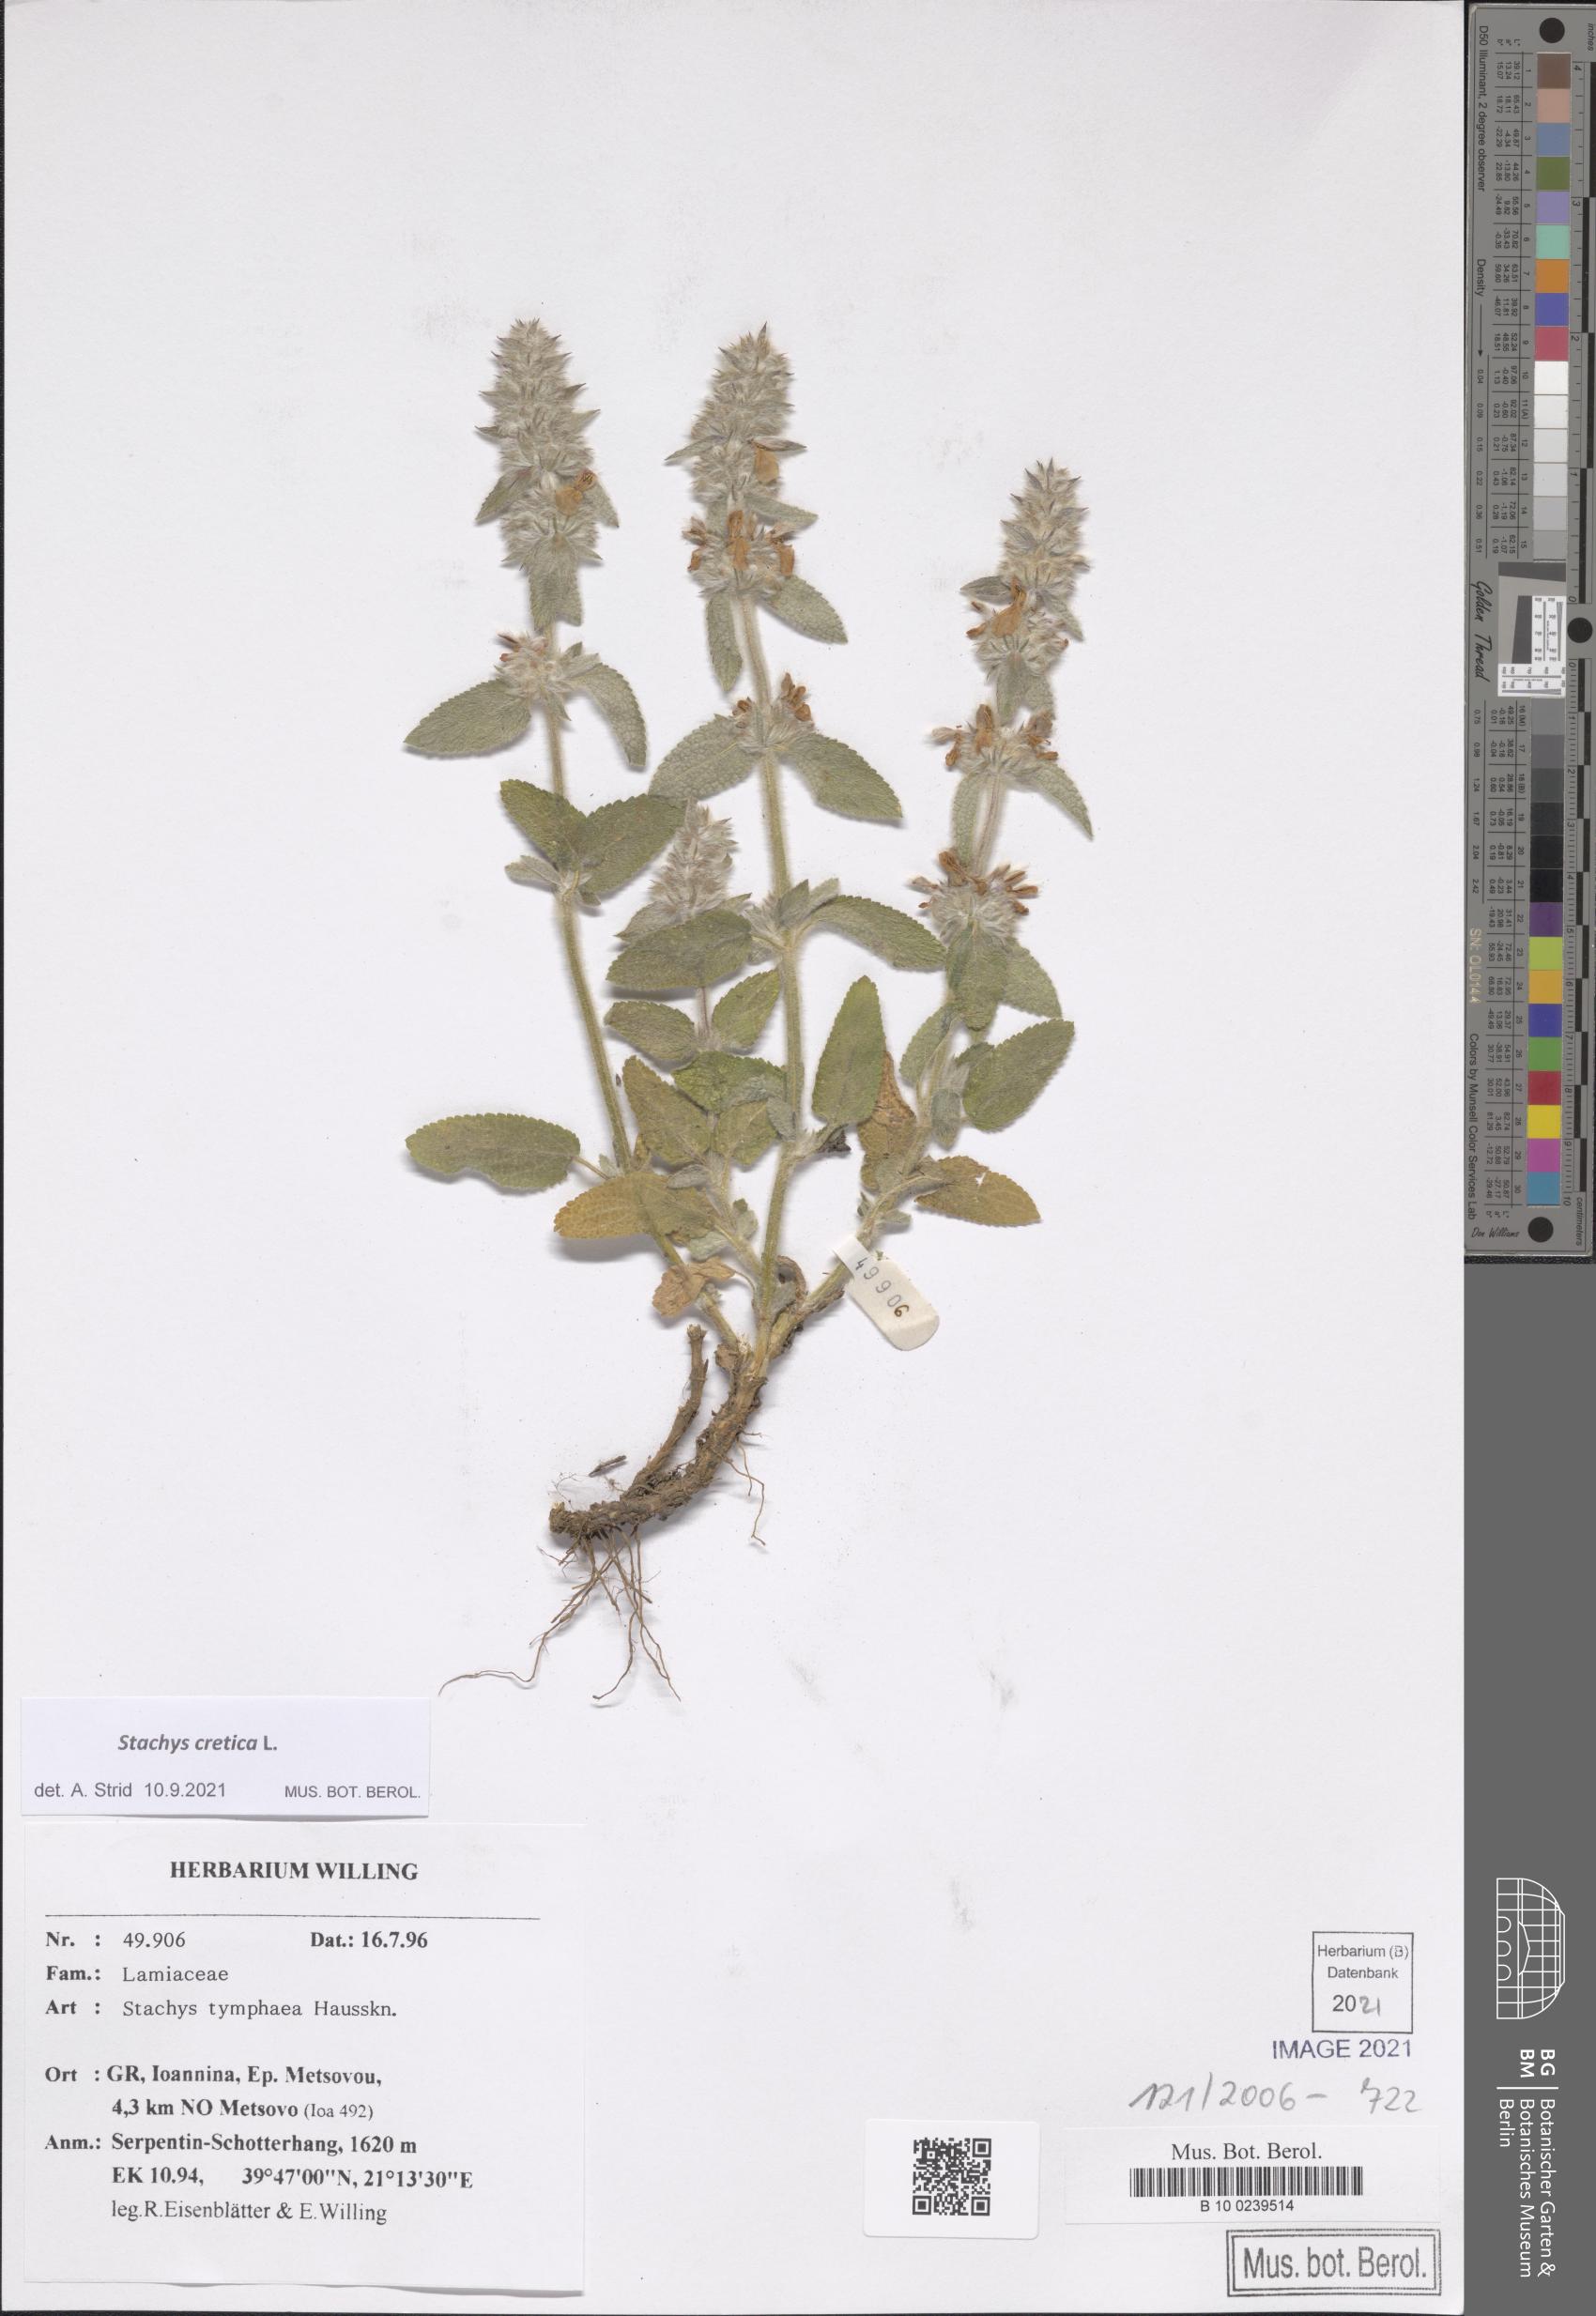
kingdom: Plantae
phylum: Tracheophyta
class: Magnoliopsida
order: Lamiales
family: Lamiaceae
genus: Stachys
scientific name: Stachys cretica
